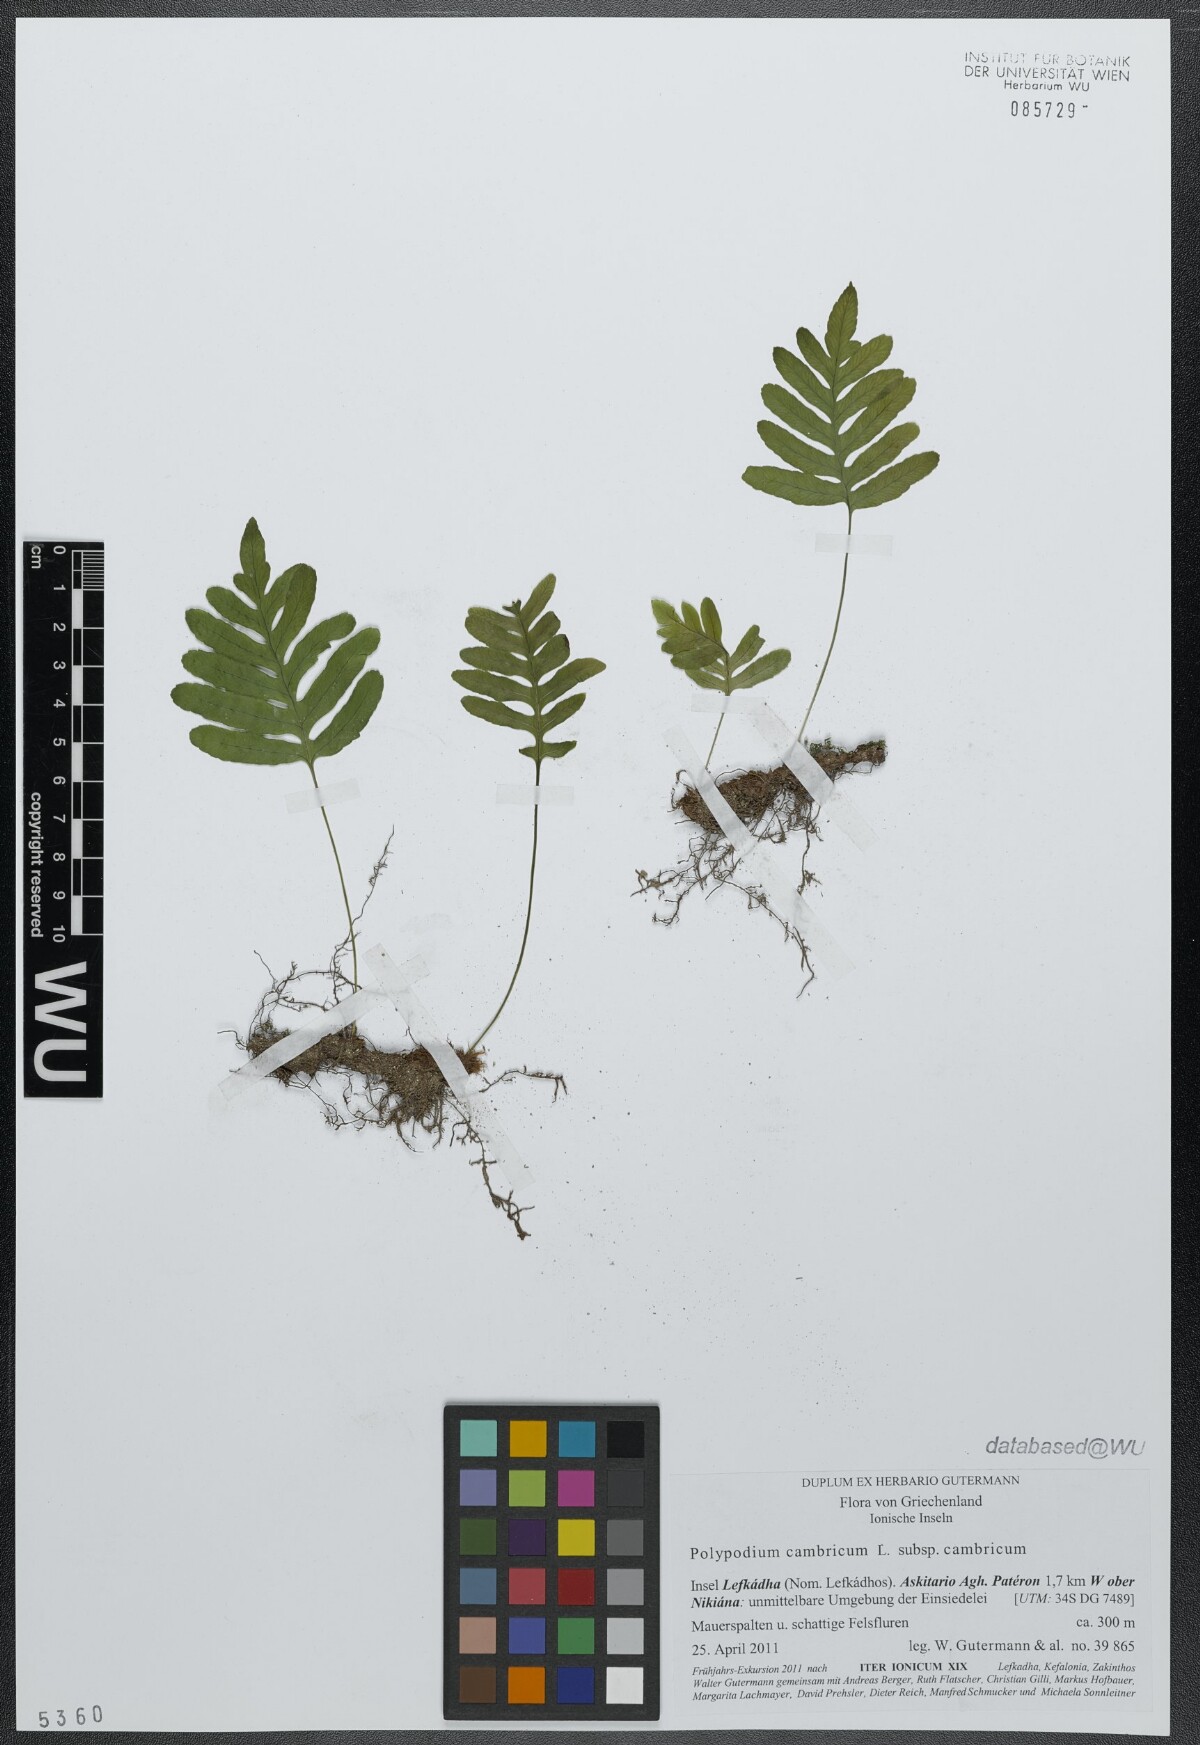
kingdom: Plantae
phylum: Tracheophyta
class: Polypodiopsida
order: Polypodiales
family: Polypodiaceae
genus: Polypodium
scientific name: Polypodium cambricum
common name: Southern polypody
